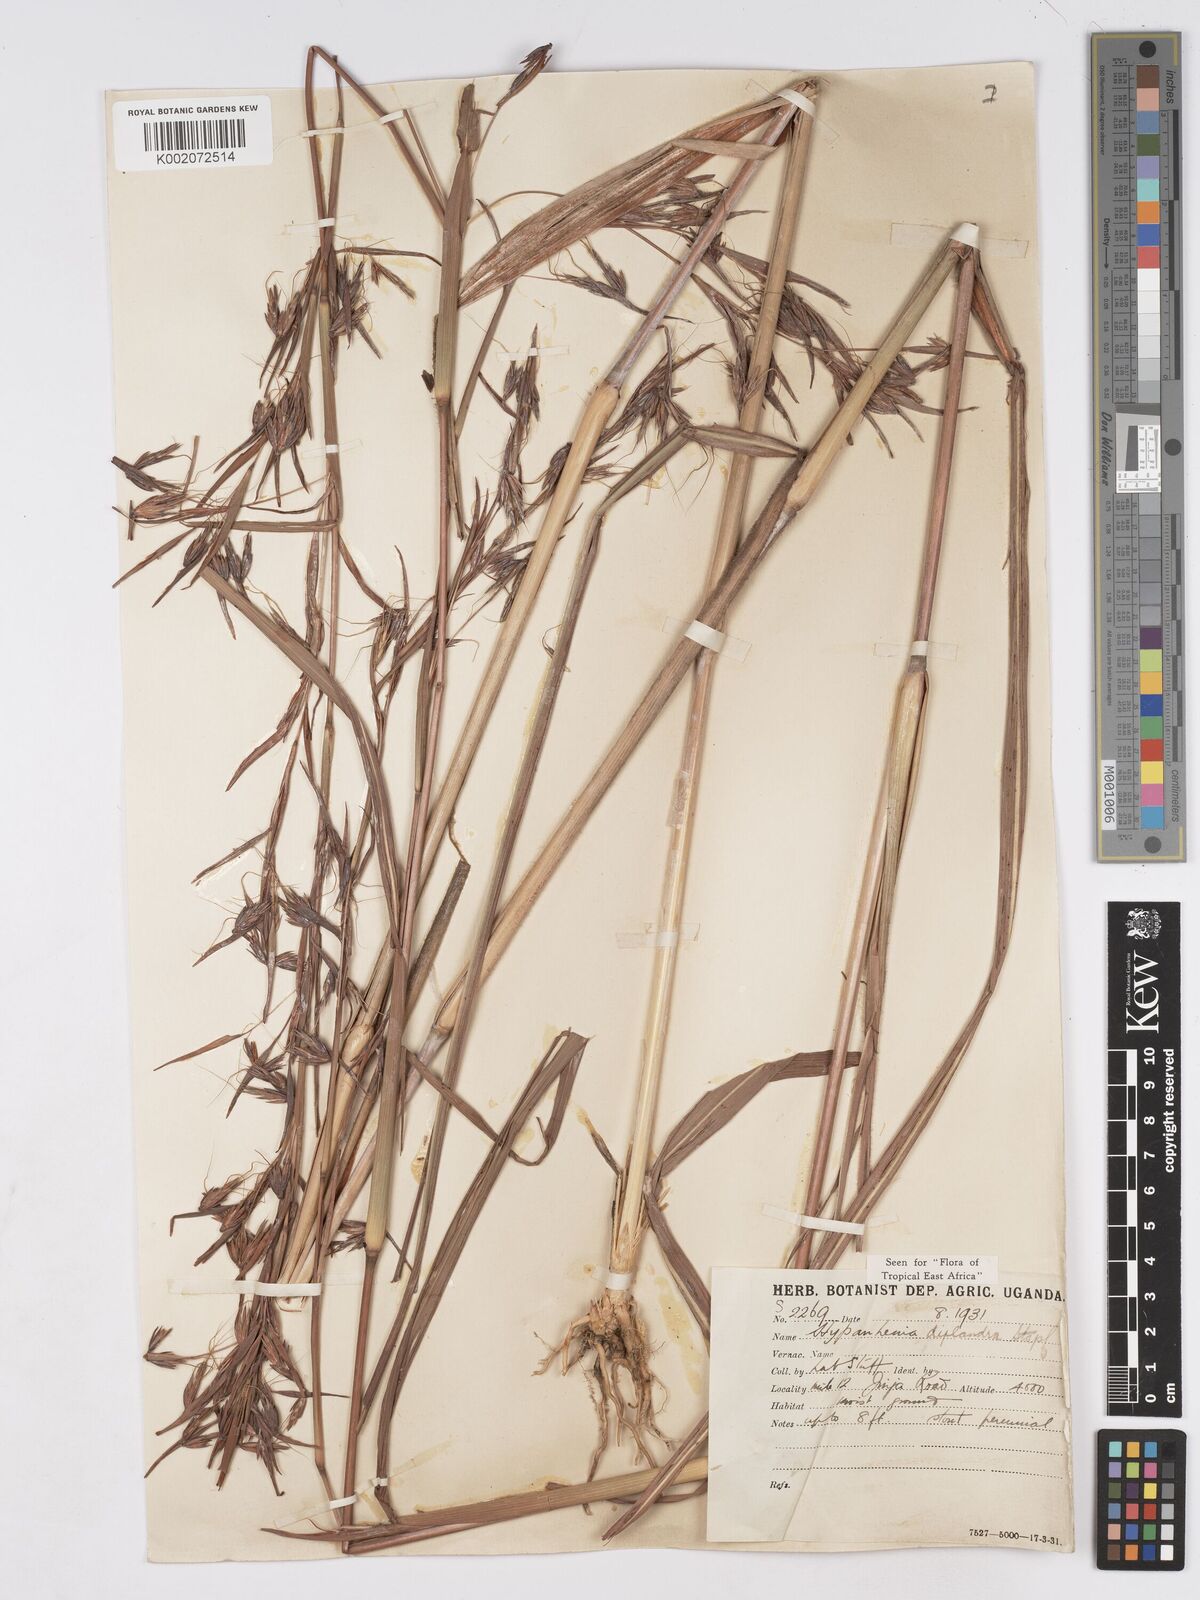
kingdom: Plantae
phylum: Tracheophyta
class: Liliopsida
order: Poales
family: Poaceae
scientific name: Poaceae
